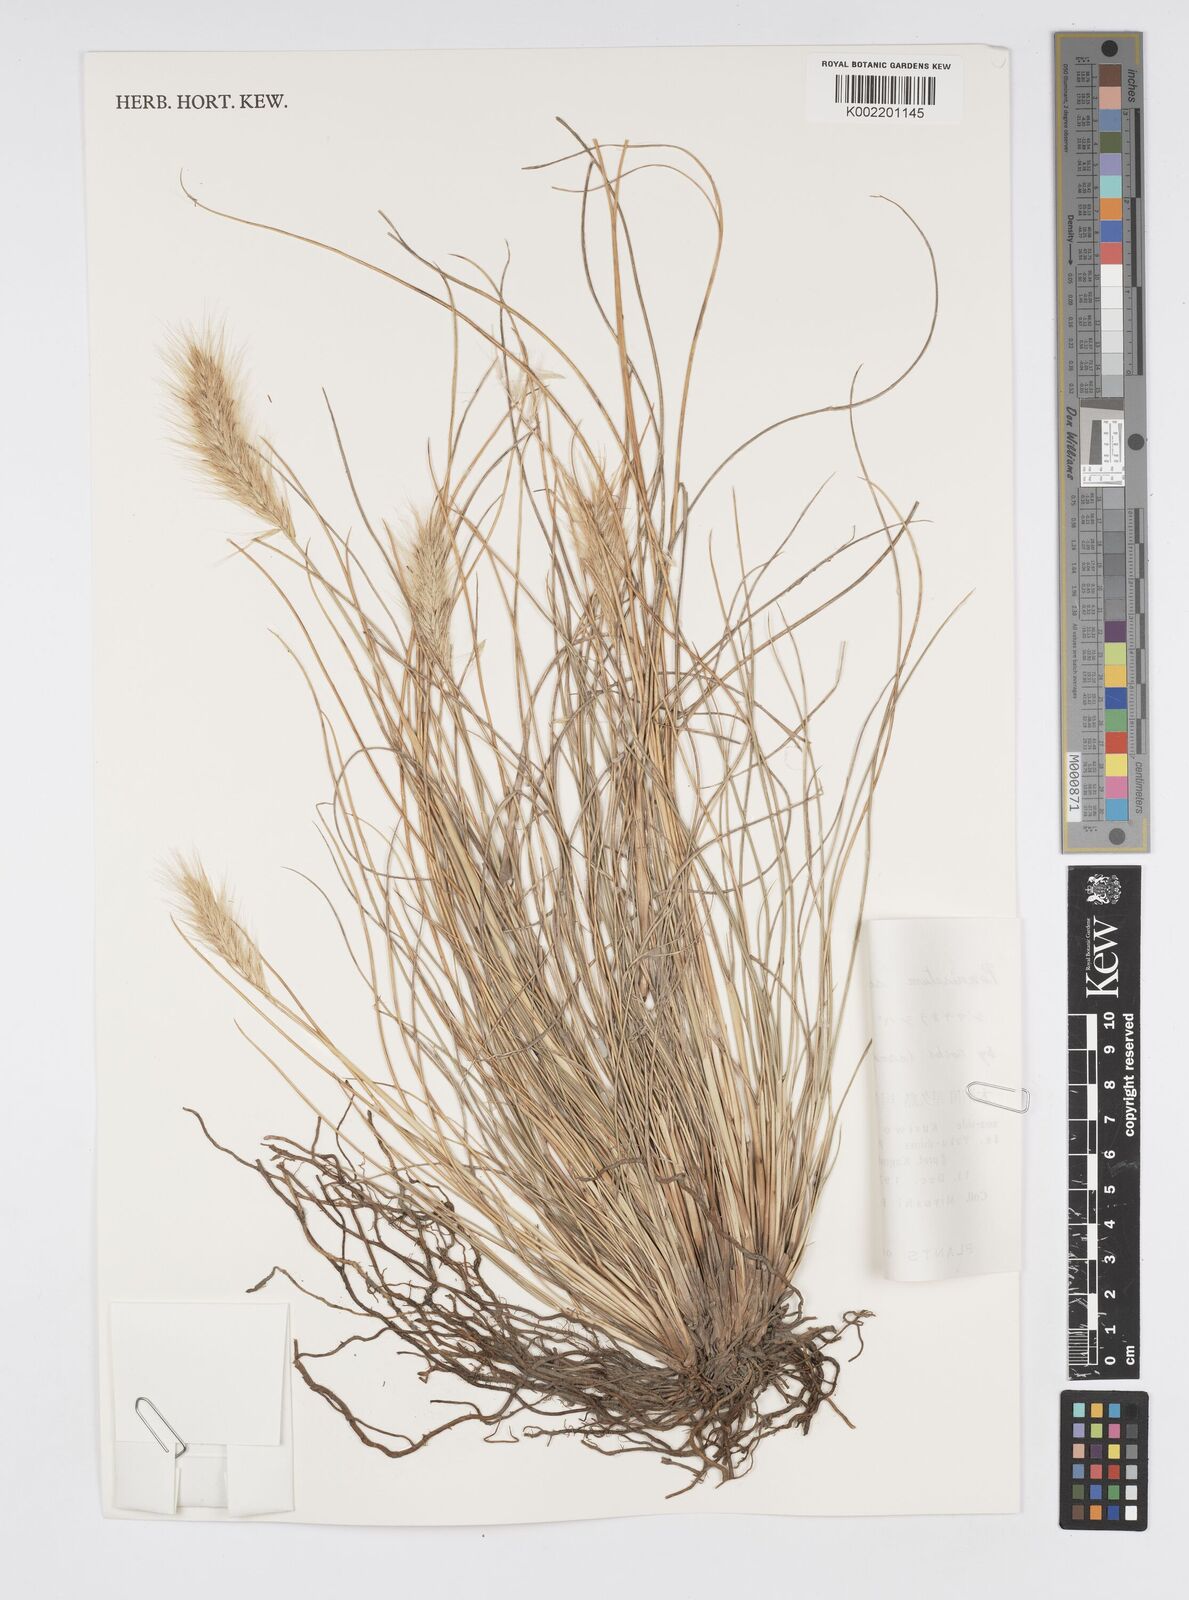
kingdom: Plantae
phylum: Tracheophyta
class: Liliopsida
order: Poales
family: Poaceae
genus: Cenchrus
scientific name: Cenchrus alopecuroides
